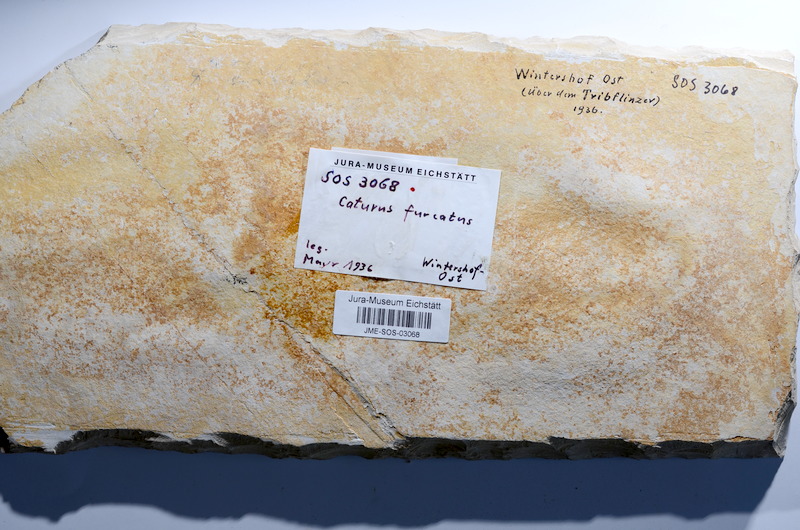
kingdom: Animalia
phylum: Chordata
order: Amiiformes
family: Caturidae
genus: Caturus
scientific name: Caturus furcatus
